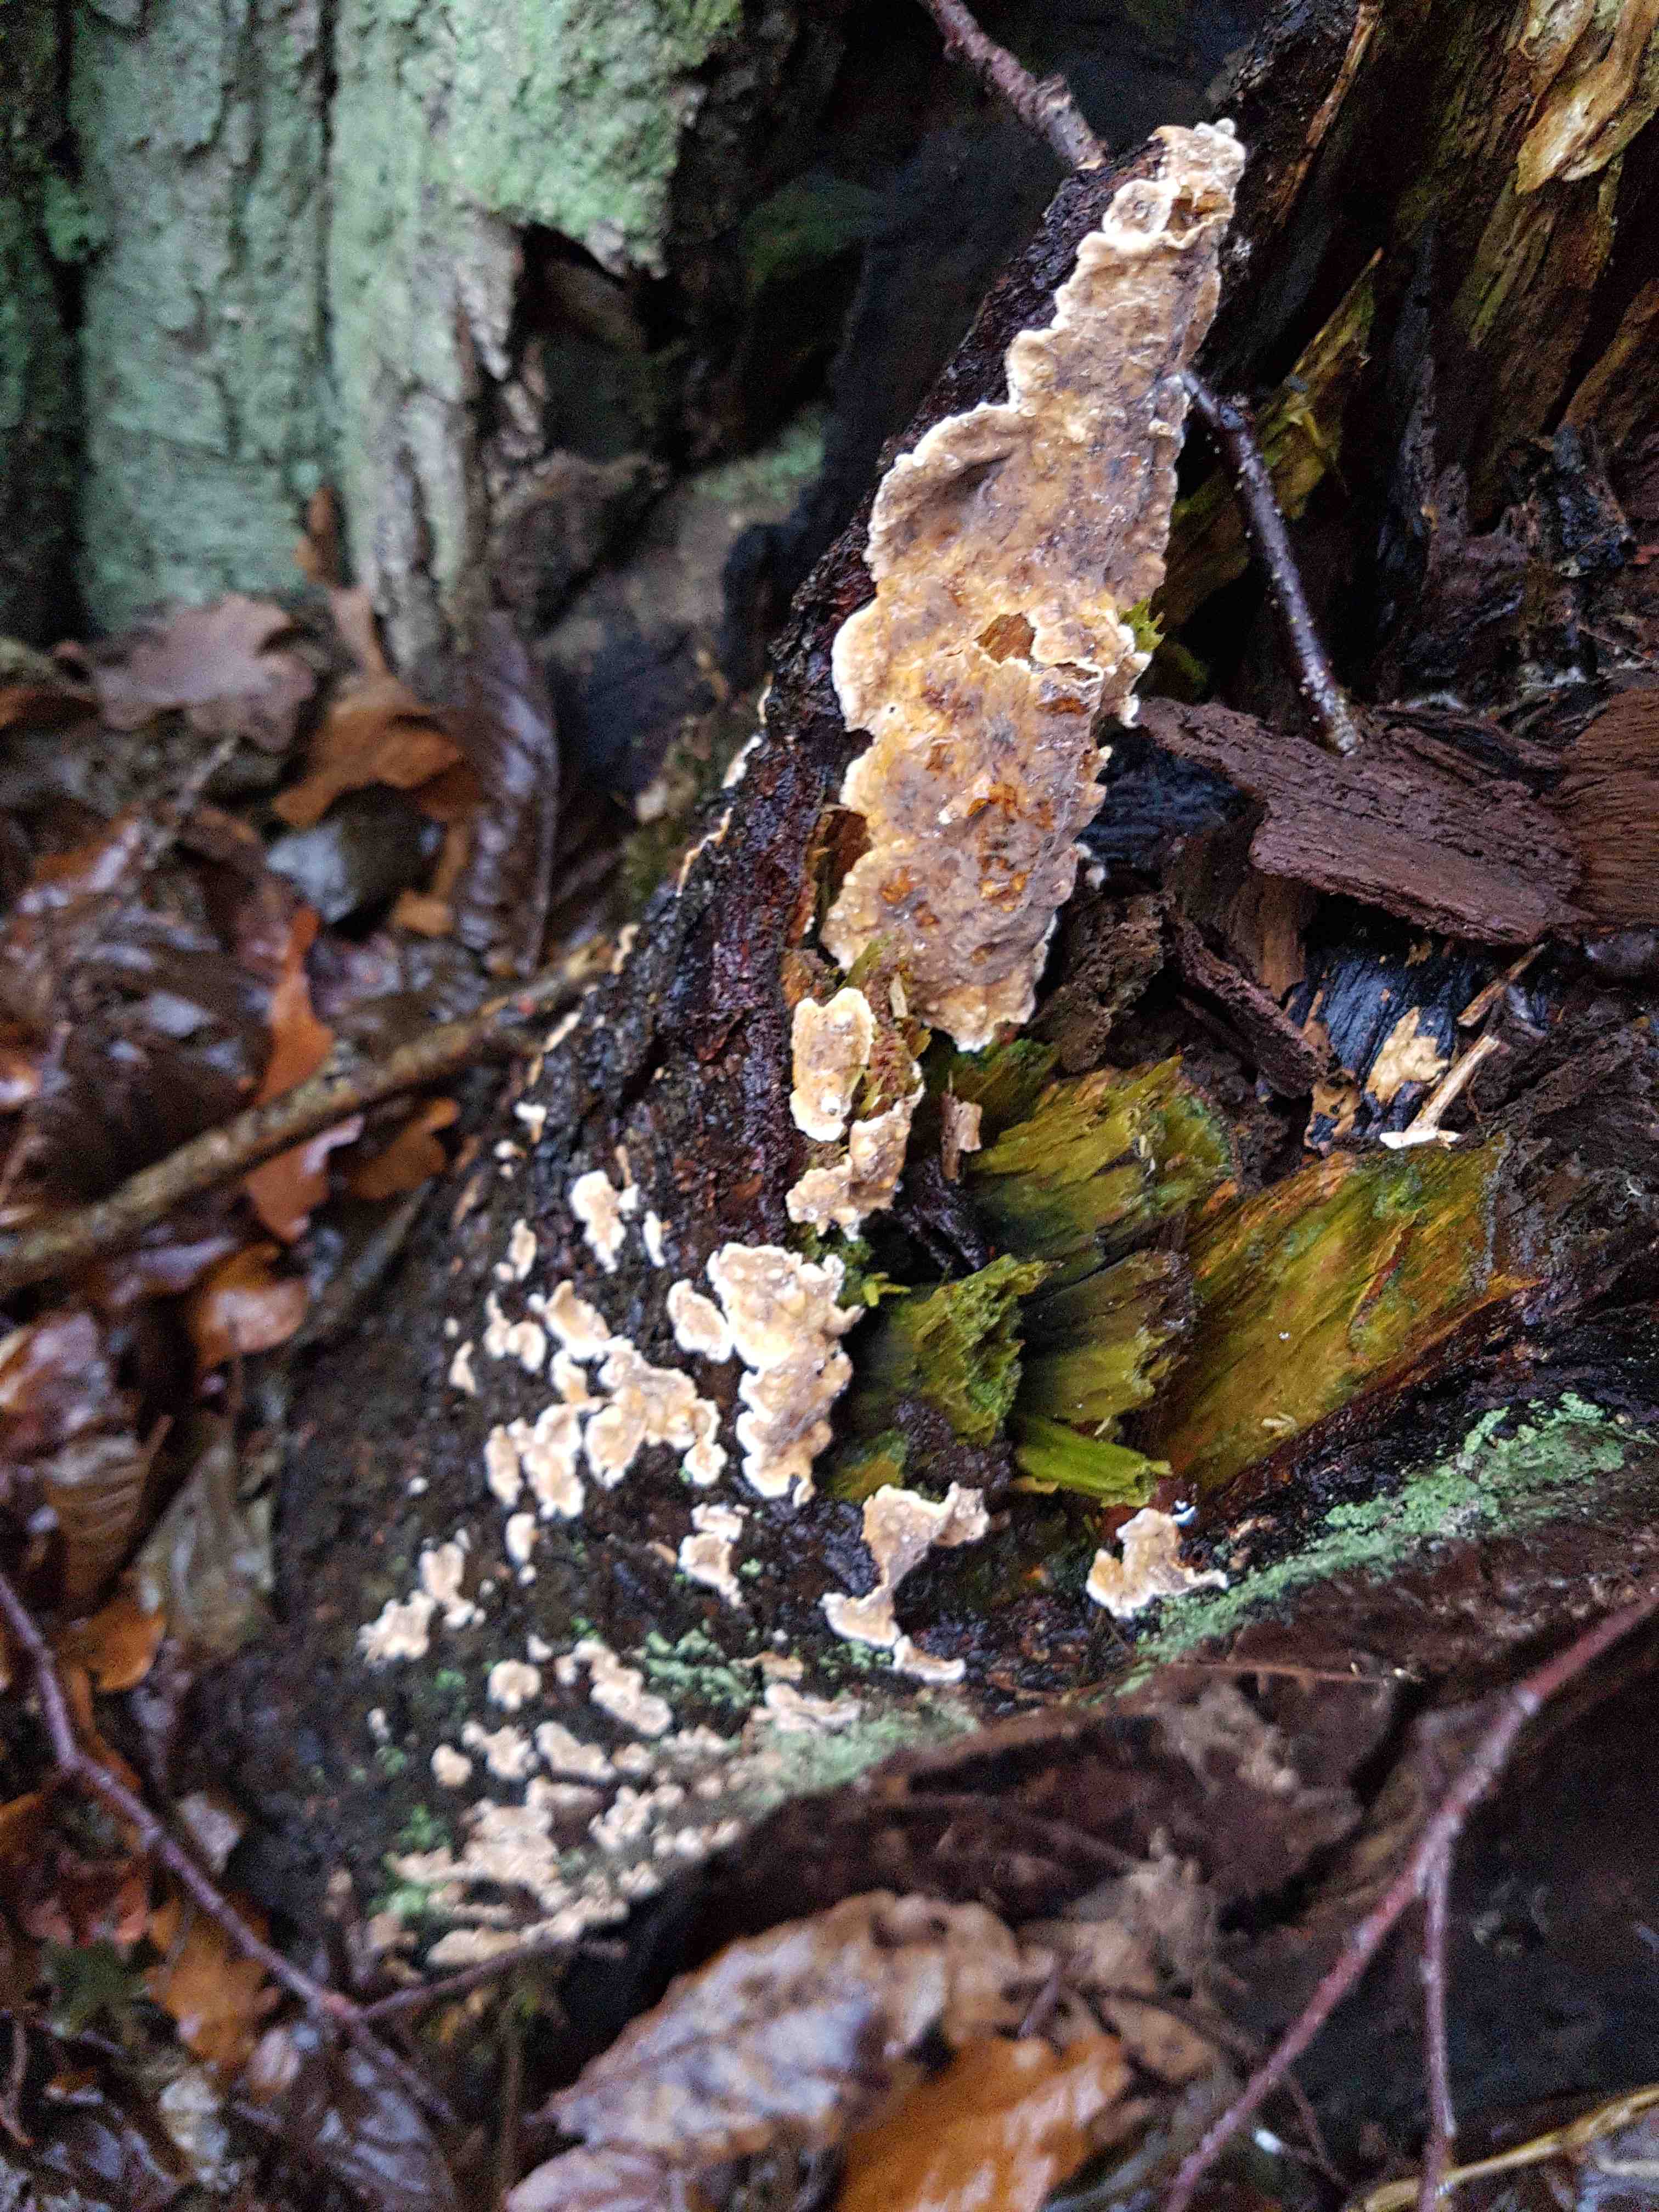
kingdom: Fungi
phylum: Basidiomycota
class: Agaricomycetes
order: Russulales
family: Stereaceae
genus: Stereum
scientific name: Stereum rugosum
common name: rynket lædersvamp
